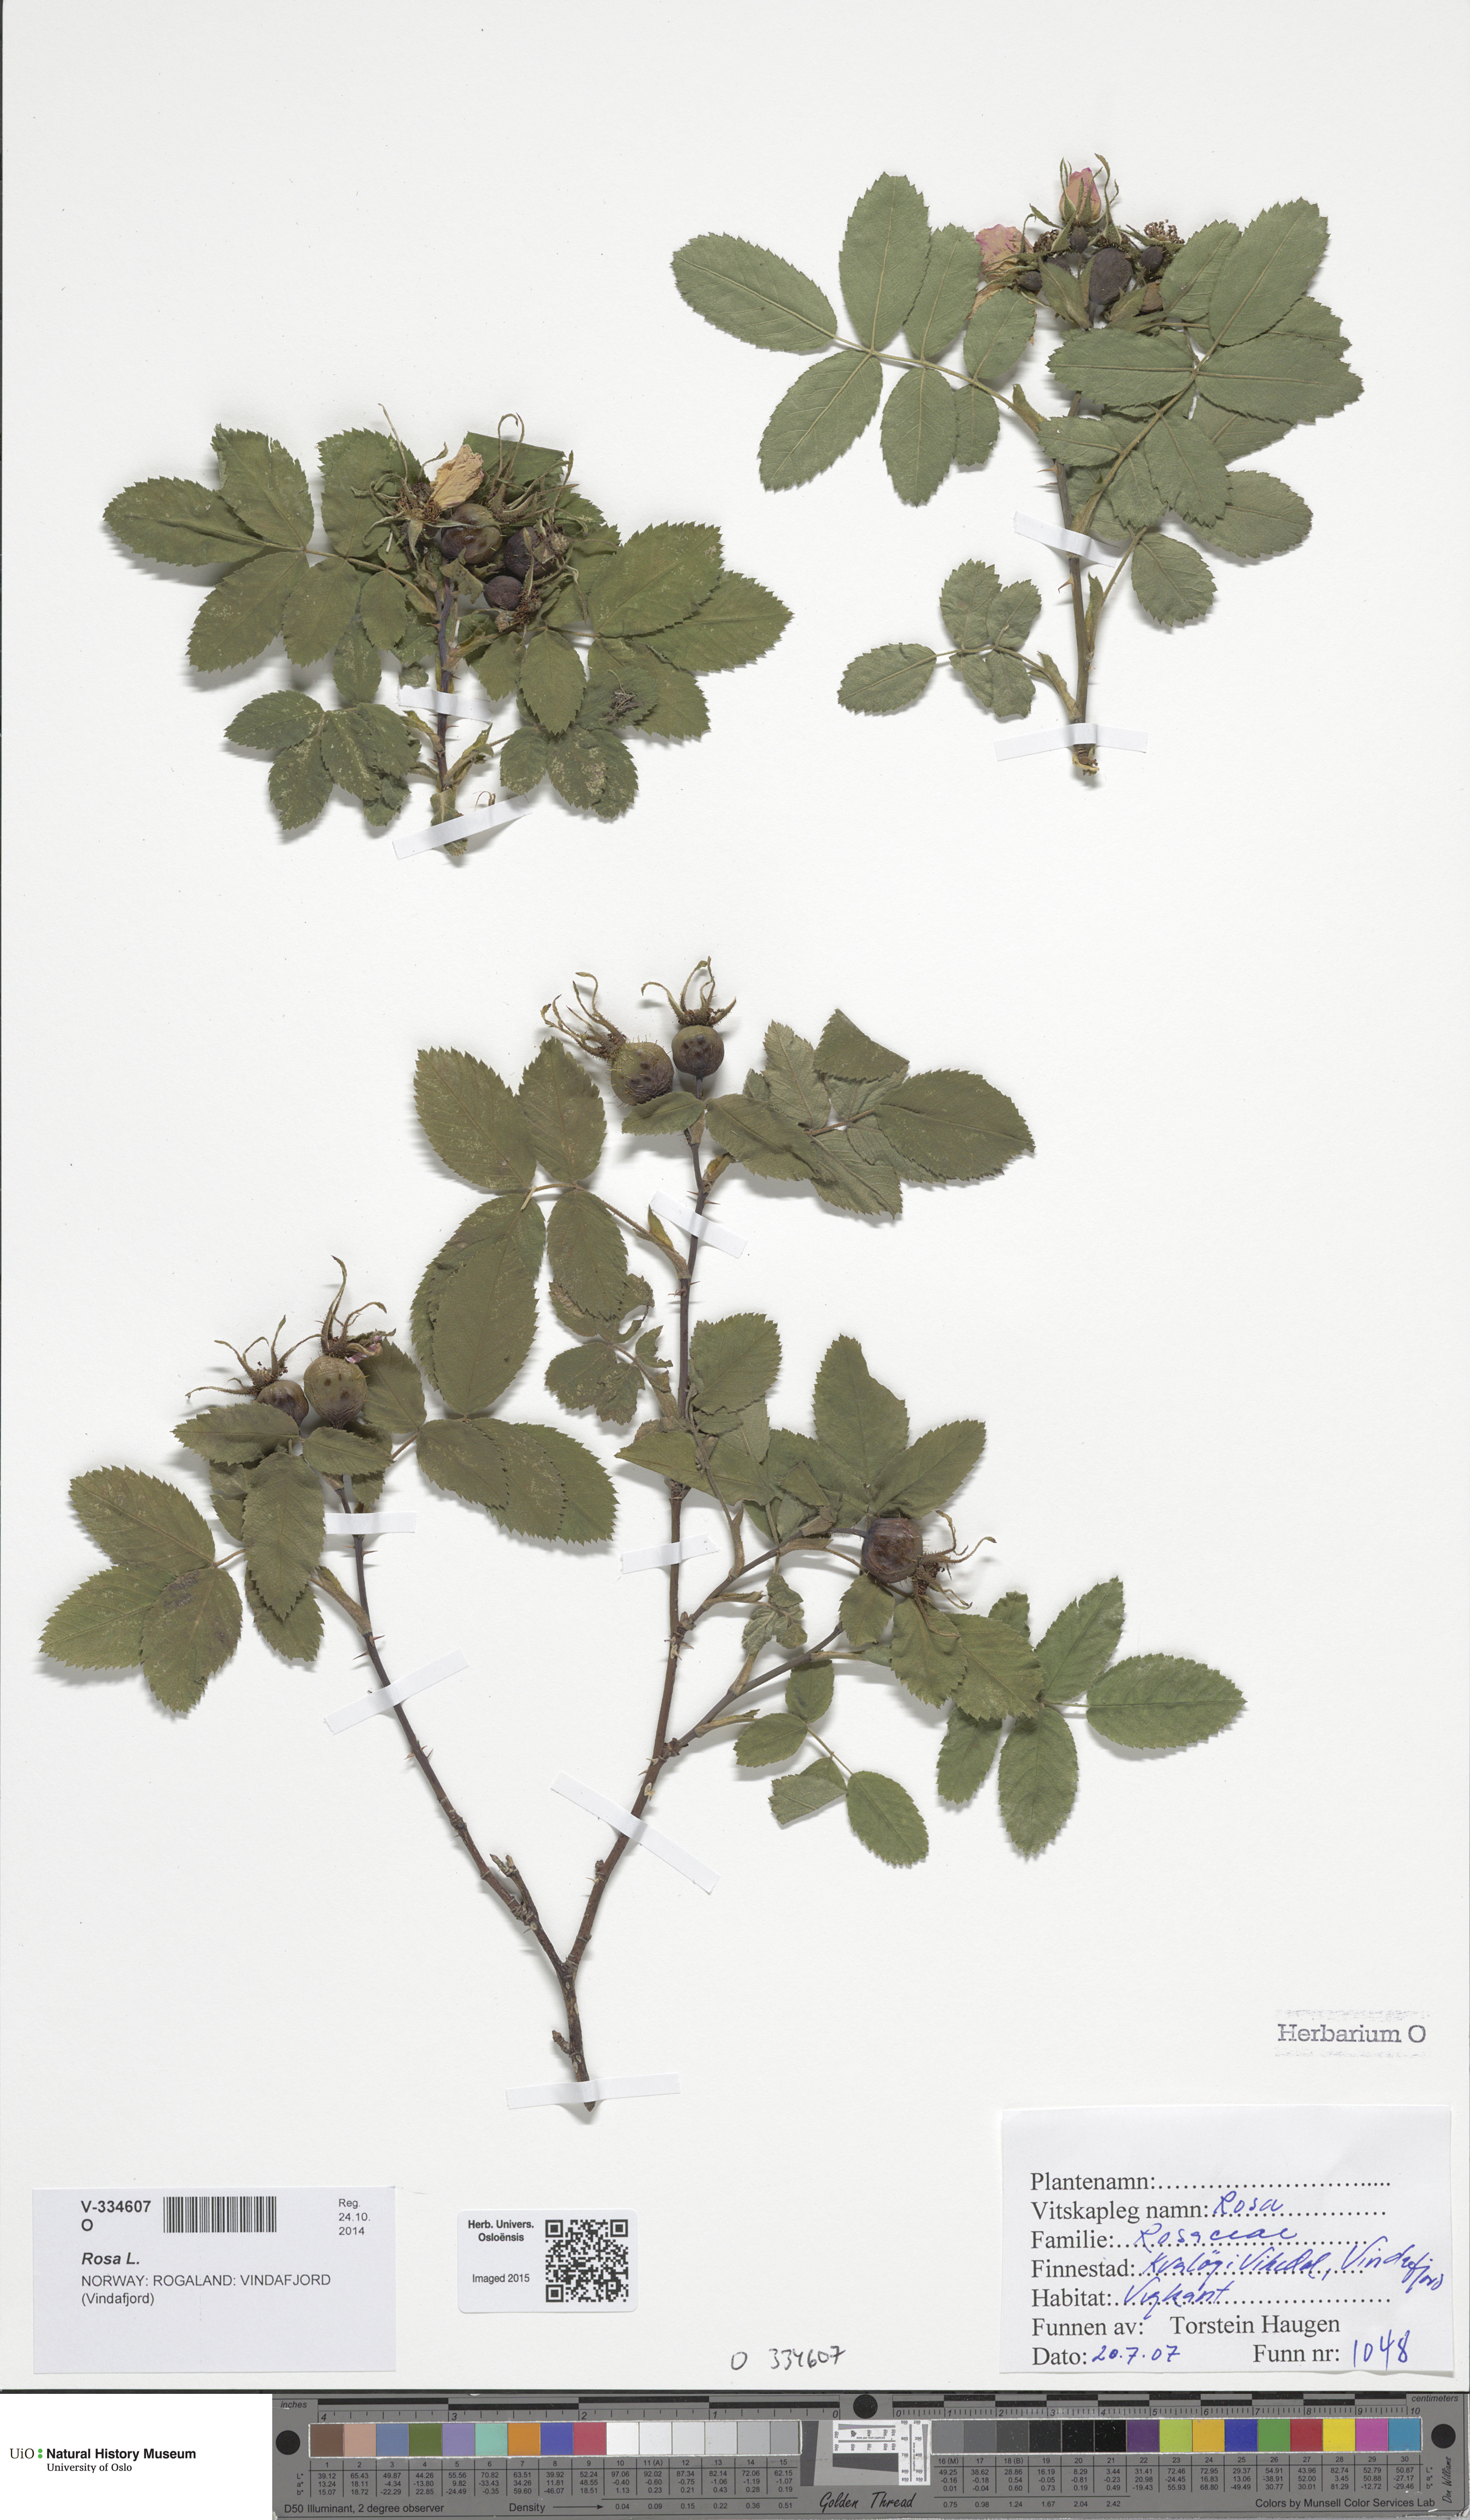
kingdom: Plantae
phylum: Tracheophyta
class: Magnoliopsida
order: Rosales
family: Rosaceae
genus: Rosa
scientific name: Rosa mollis
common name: Rose
